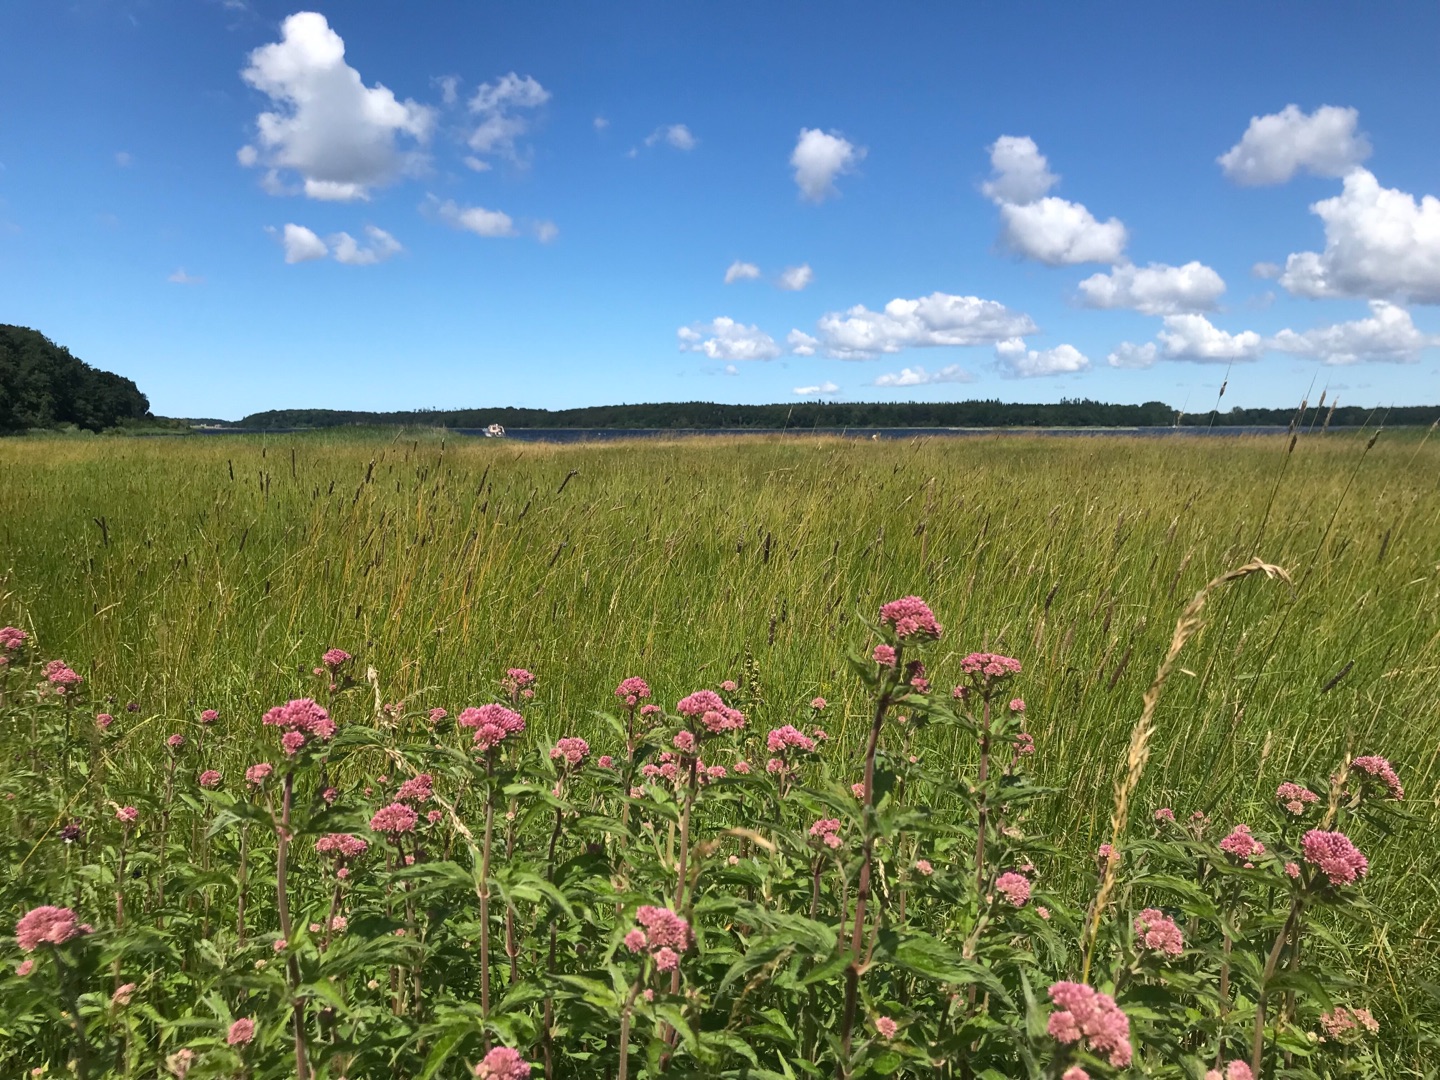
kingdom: Plantae
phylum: Tracheophyta
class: Magnoliopsida
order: Asterales
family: Asteraceae
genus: Eupatorium
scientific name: Eupatorium cannabinum
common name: Hjortetrøst
